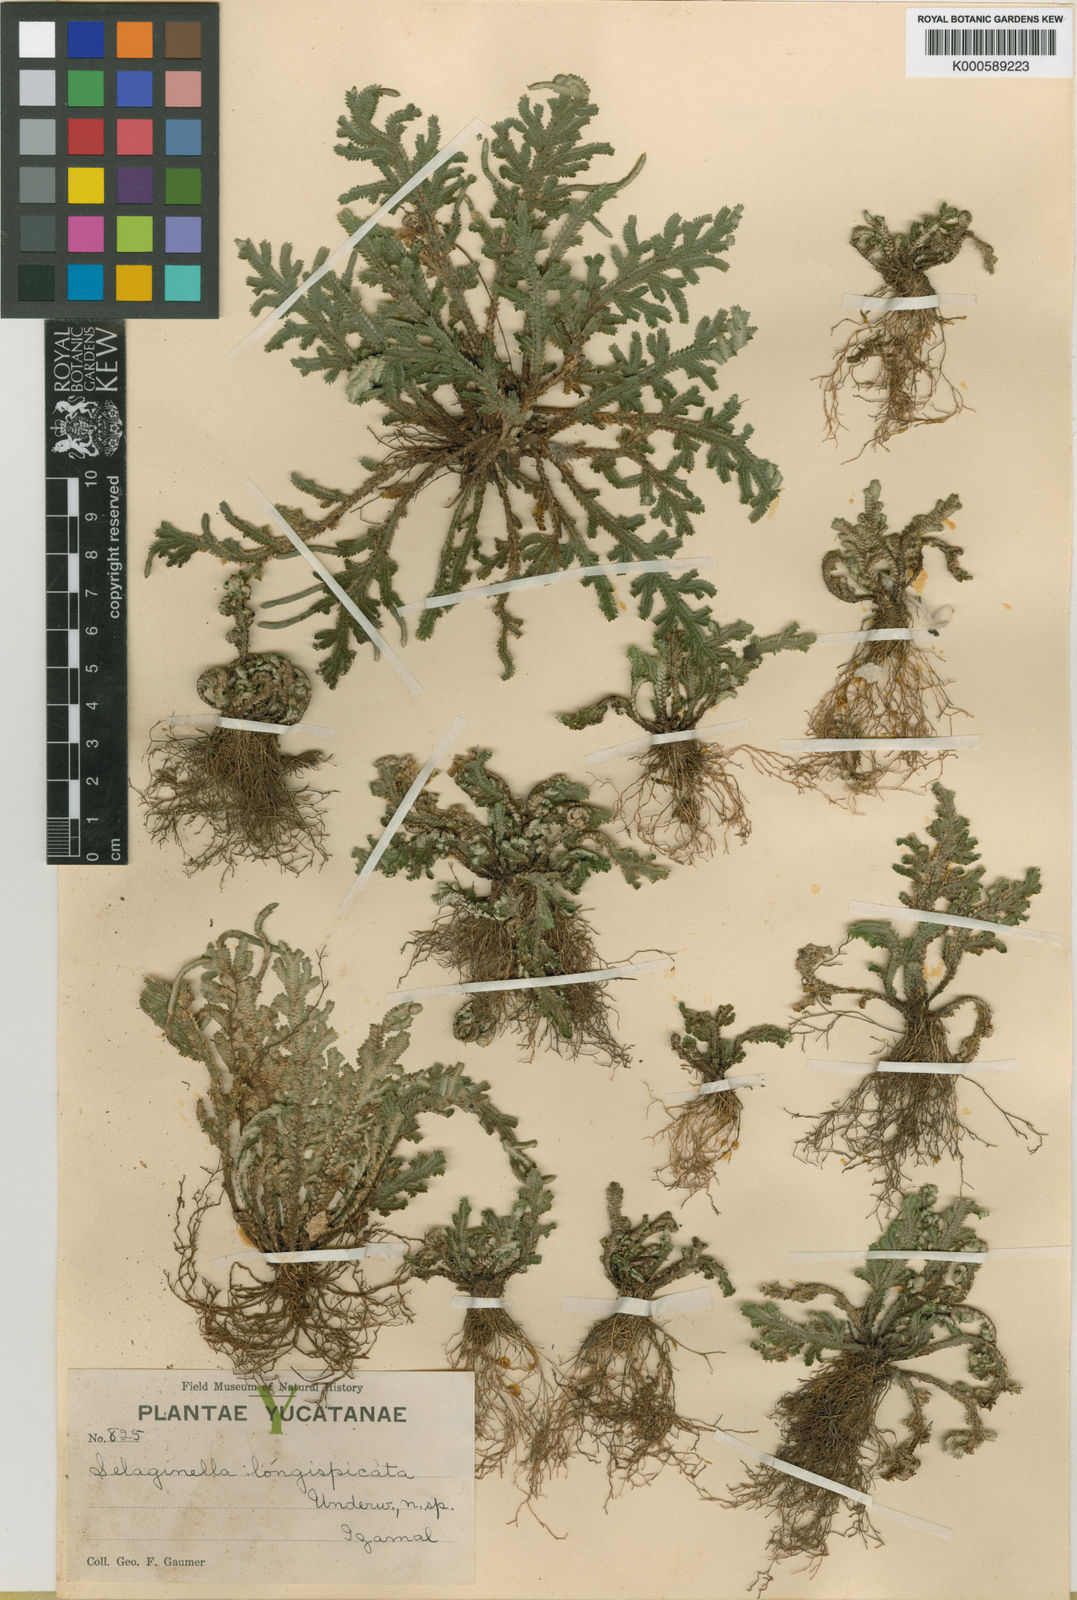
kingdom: Plantae
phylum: Tracheophyta
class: Lycopodiopsida
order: Selaginellales
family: Selaginellaceae
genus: Selaginella
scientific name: Selaginella convoluta
